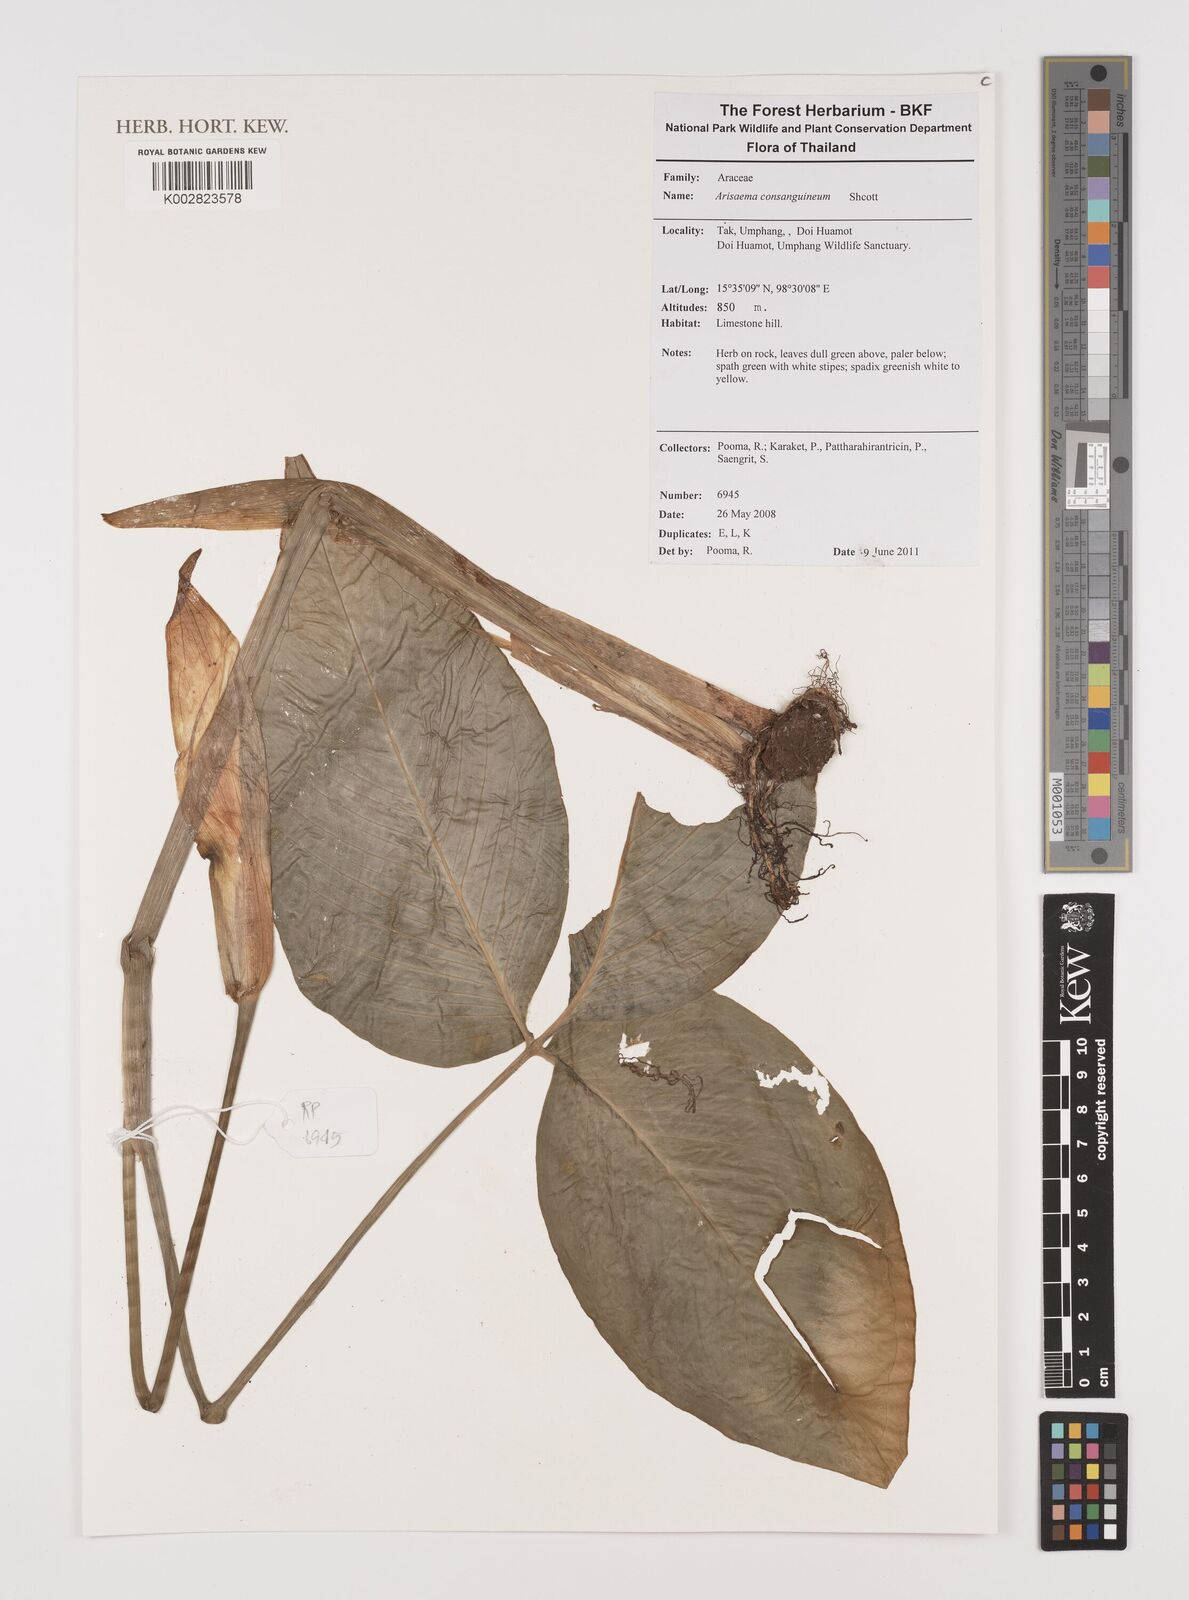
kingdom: Plantae
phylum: Tracheophyta
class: Liliopsida
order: Alismatales
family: Araceae
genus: Arisaema
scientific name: Arisaema consanguineum
